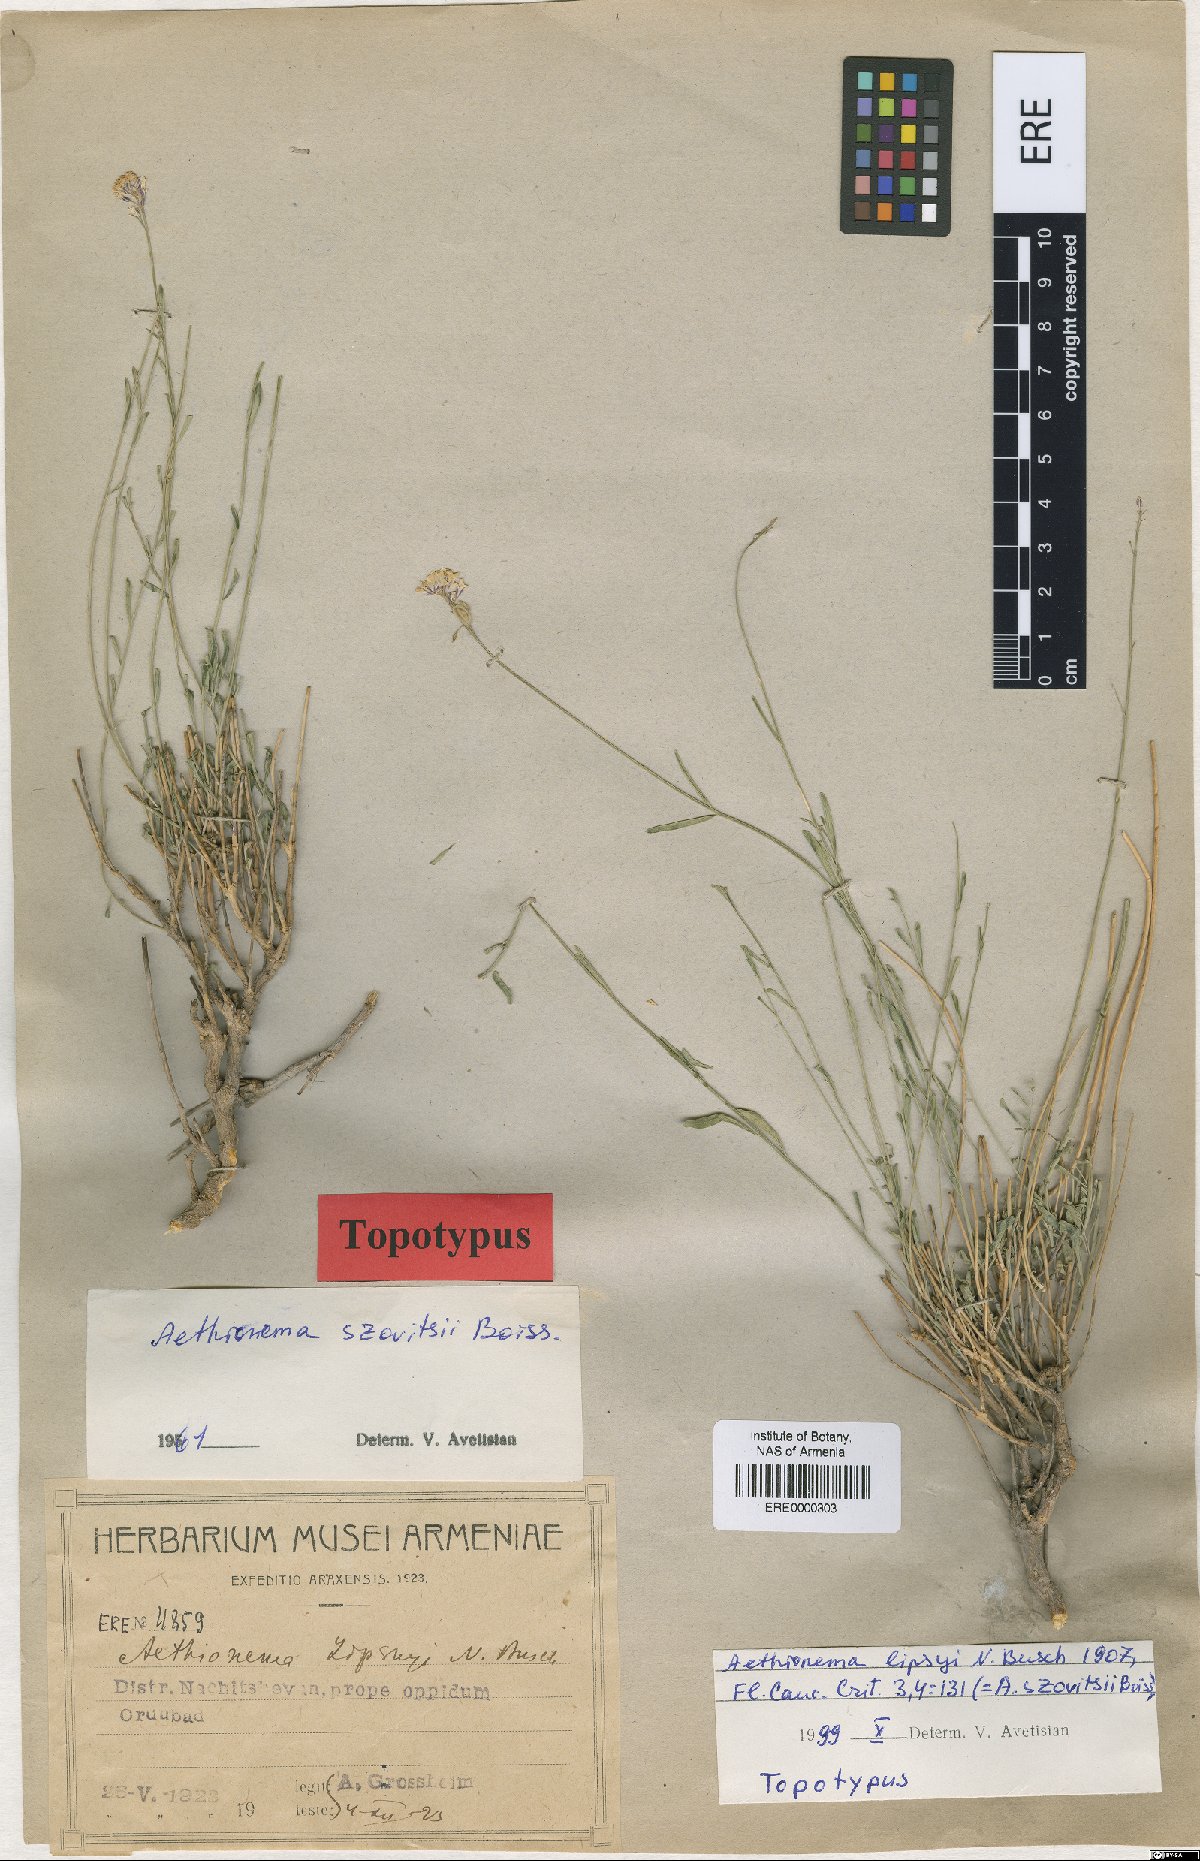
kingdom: Plantae
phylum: Tracheophyta
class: Magnoliopsida
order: Brassicales
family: Brassicaceae
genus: Aethionema
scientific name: Aethionema virgatum
